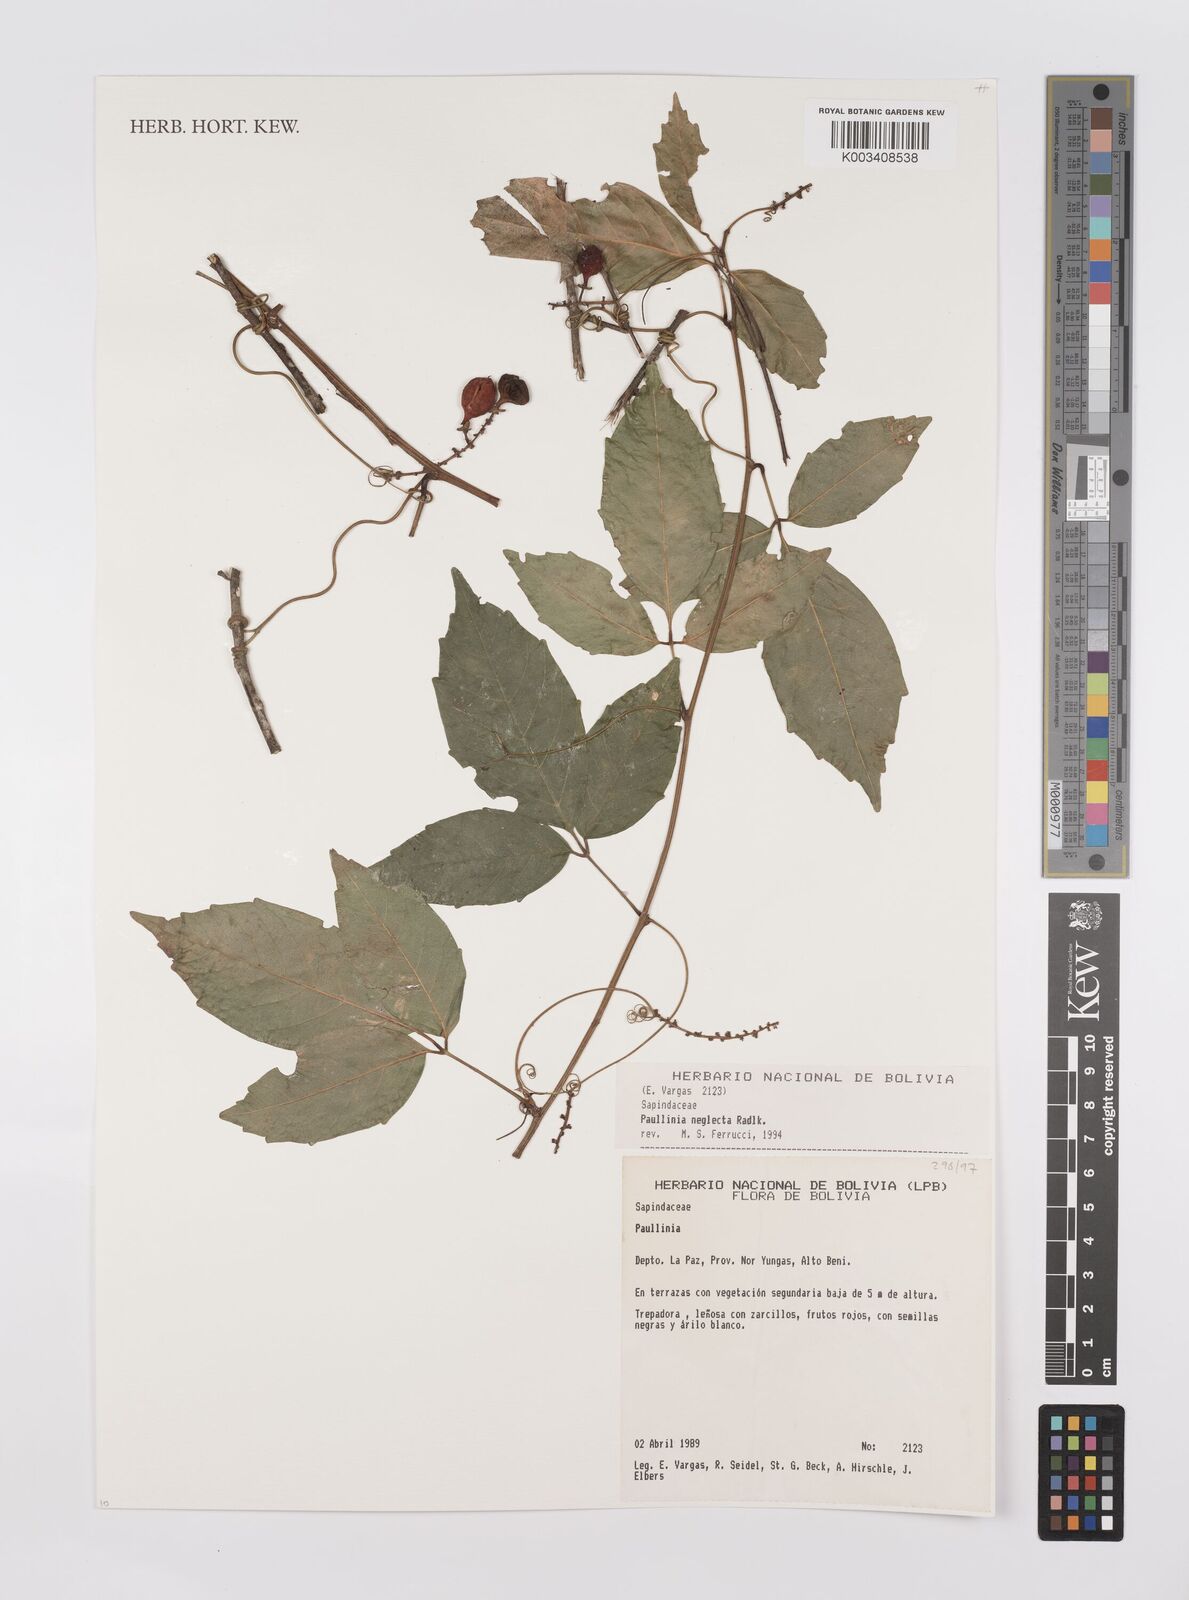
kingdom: Plantae
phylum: Tracheophyta
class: Magnoliopsida
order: Sapindales
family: Sapindaceae
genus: Paullinia
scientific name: Paullinia elegans
